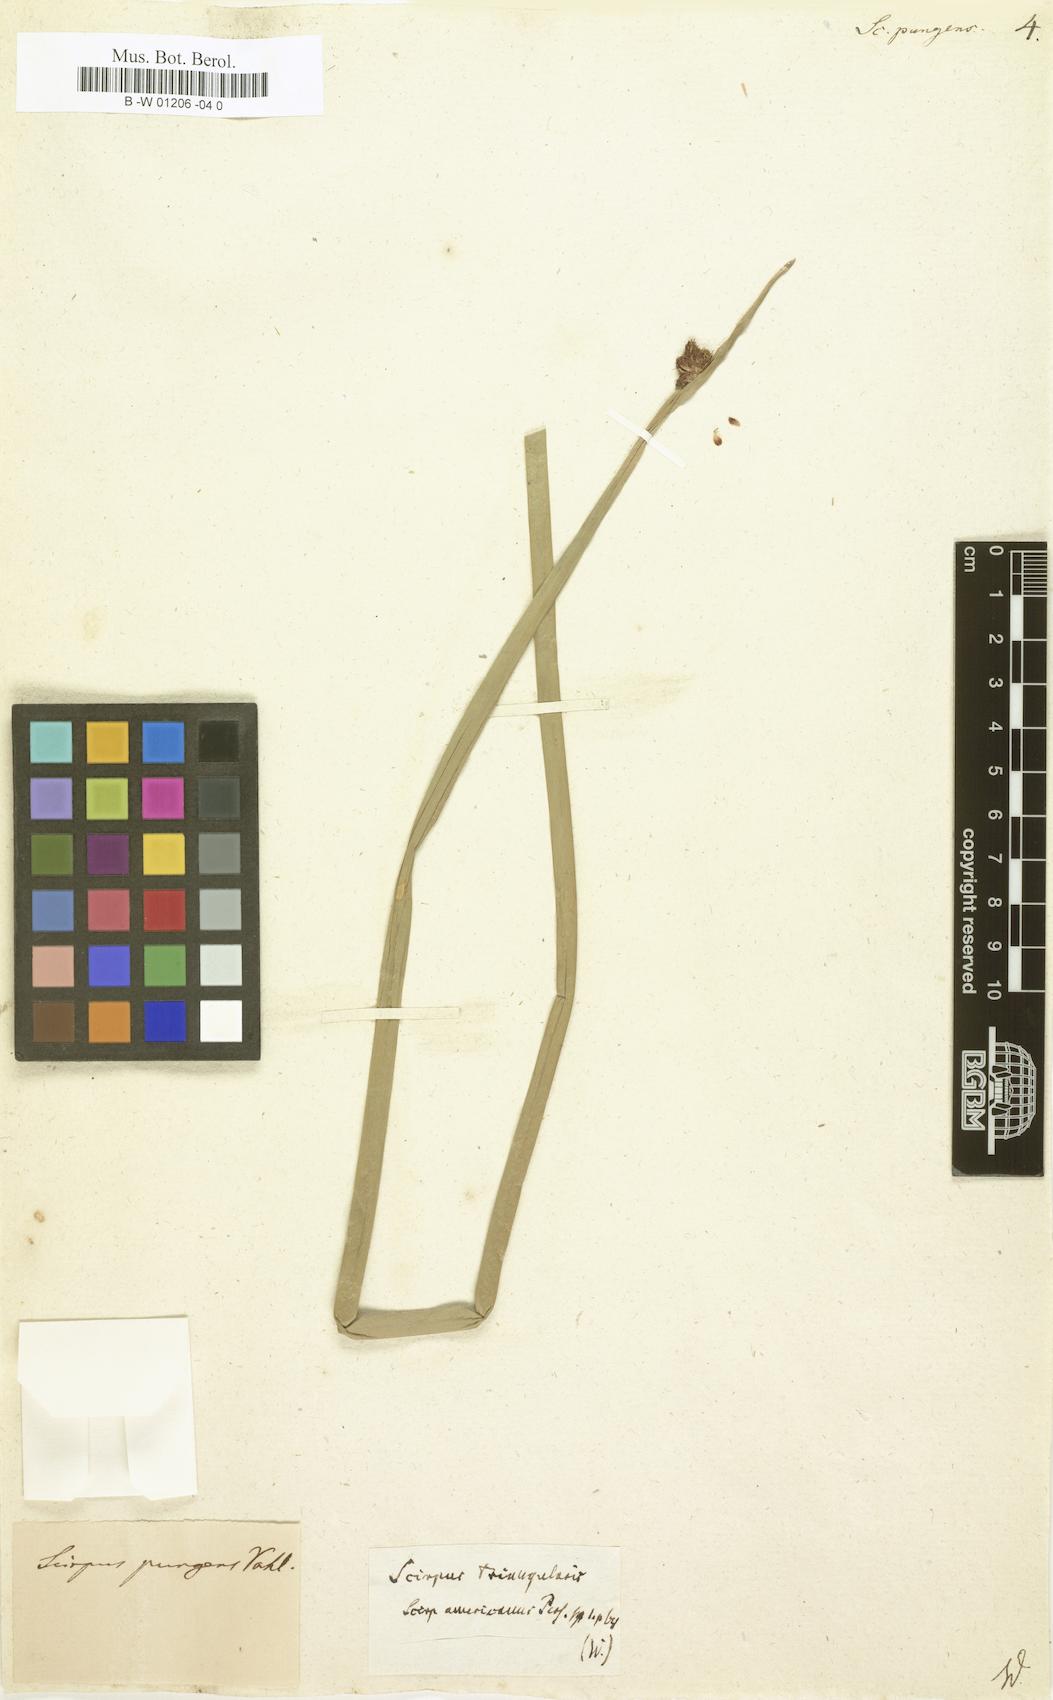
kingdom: Plantae
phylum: Tracheophyta
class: Liliopsida
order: Poales
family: Cyperaceae
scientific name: Cyperaceae
